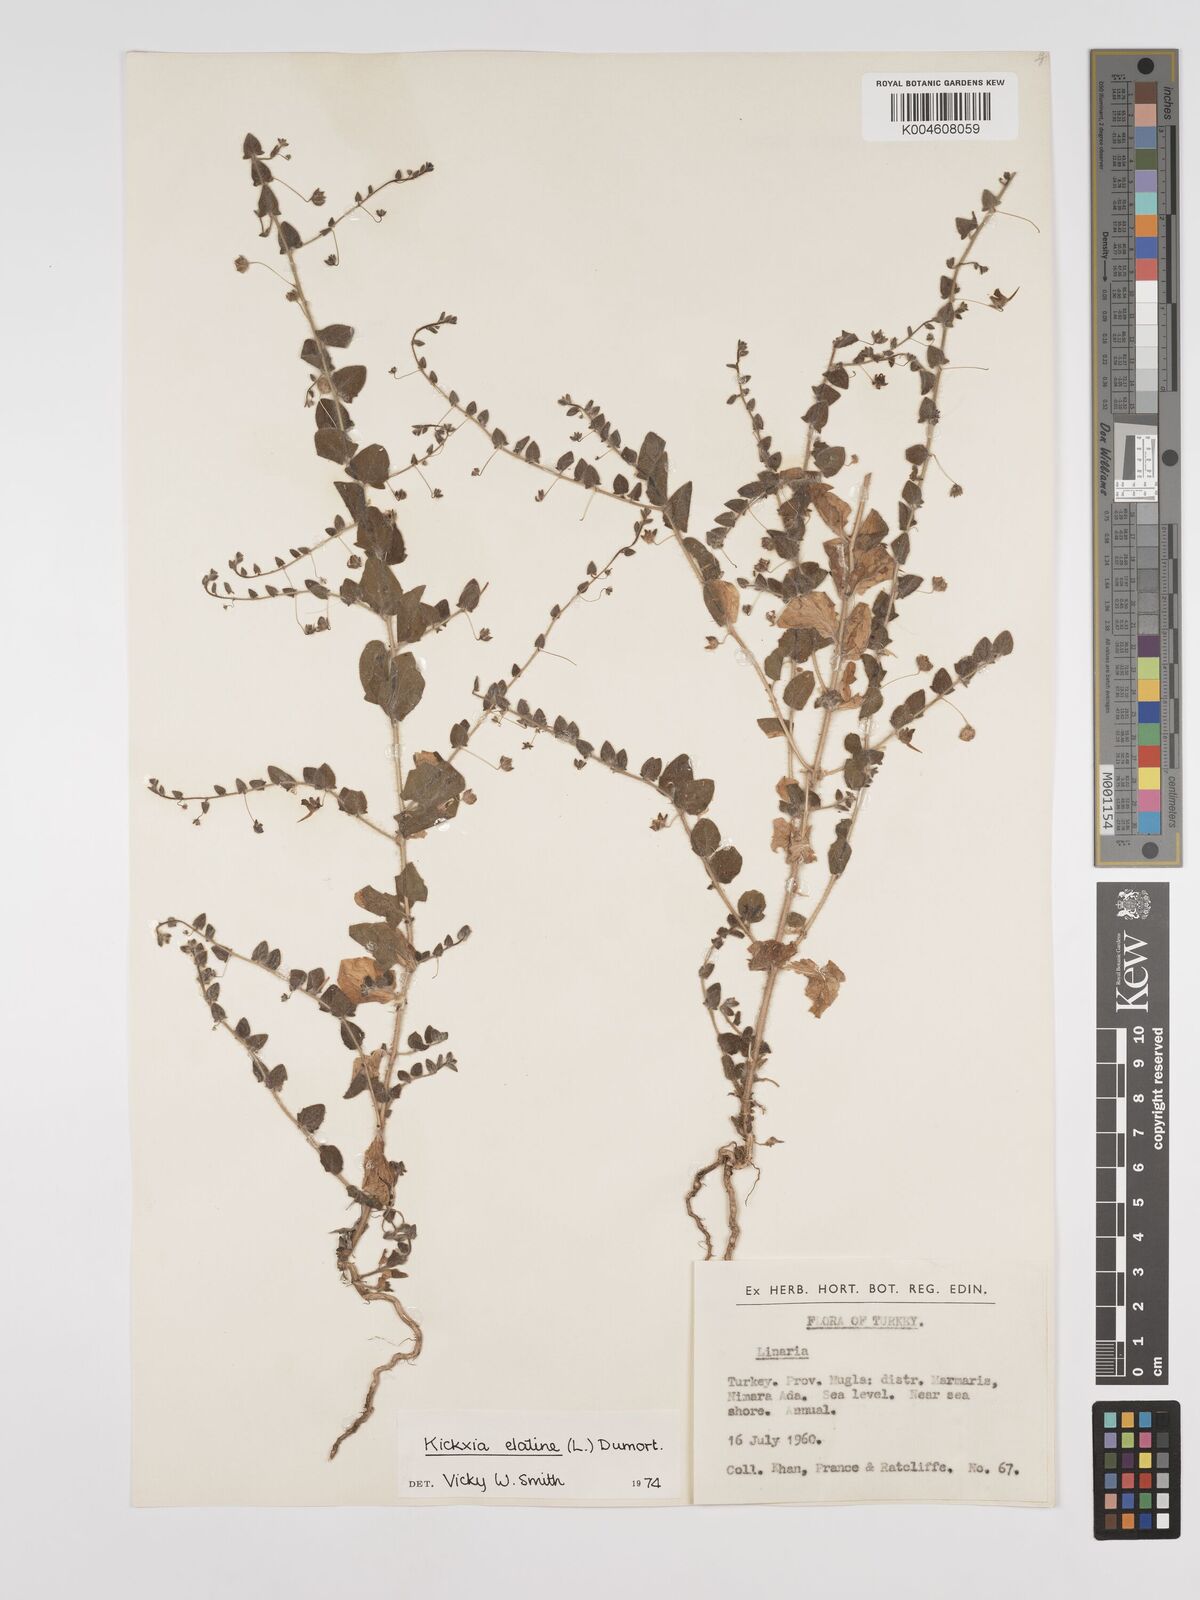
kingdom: Plantae
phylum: Tracheophyta
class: Magnoliopsida
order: Lamiales
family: Plantaginaceae
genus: Kickxia
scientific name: Kickxia elatine
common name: Sharp-leaved fluellen
